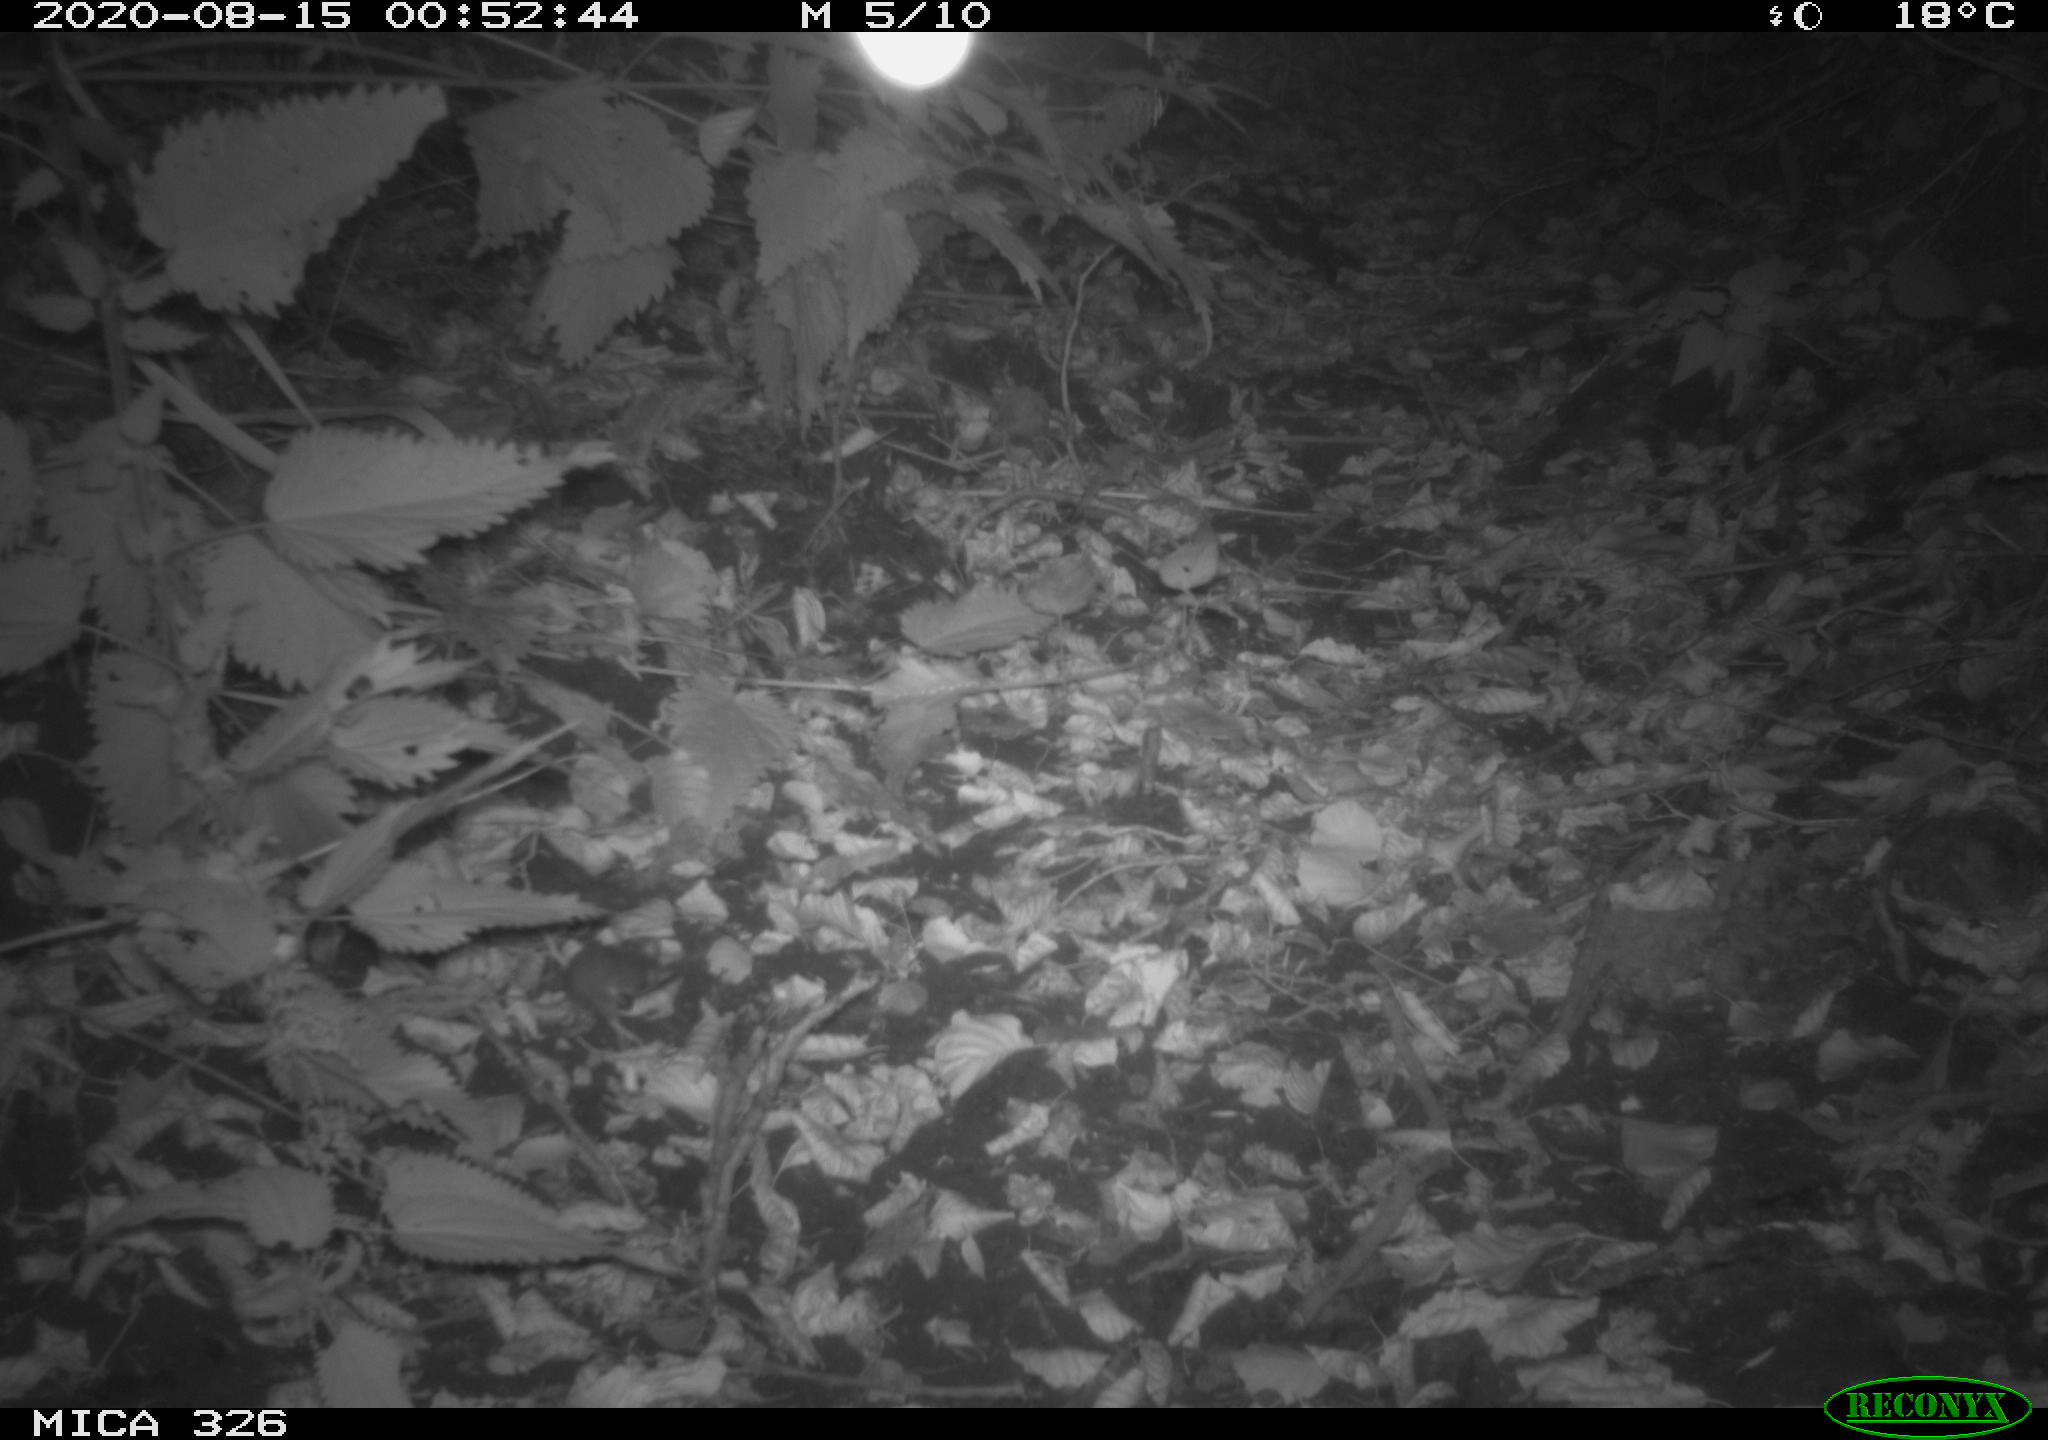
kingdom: Animalia
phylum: Chordata
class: Mammalia
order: Rodentia
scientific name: Rodentia
